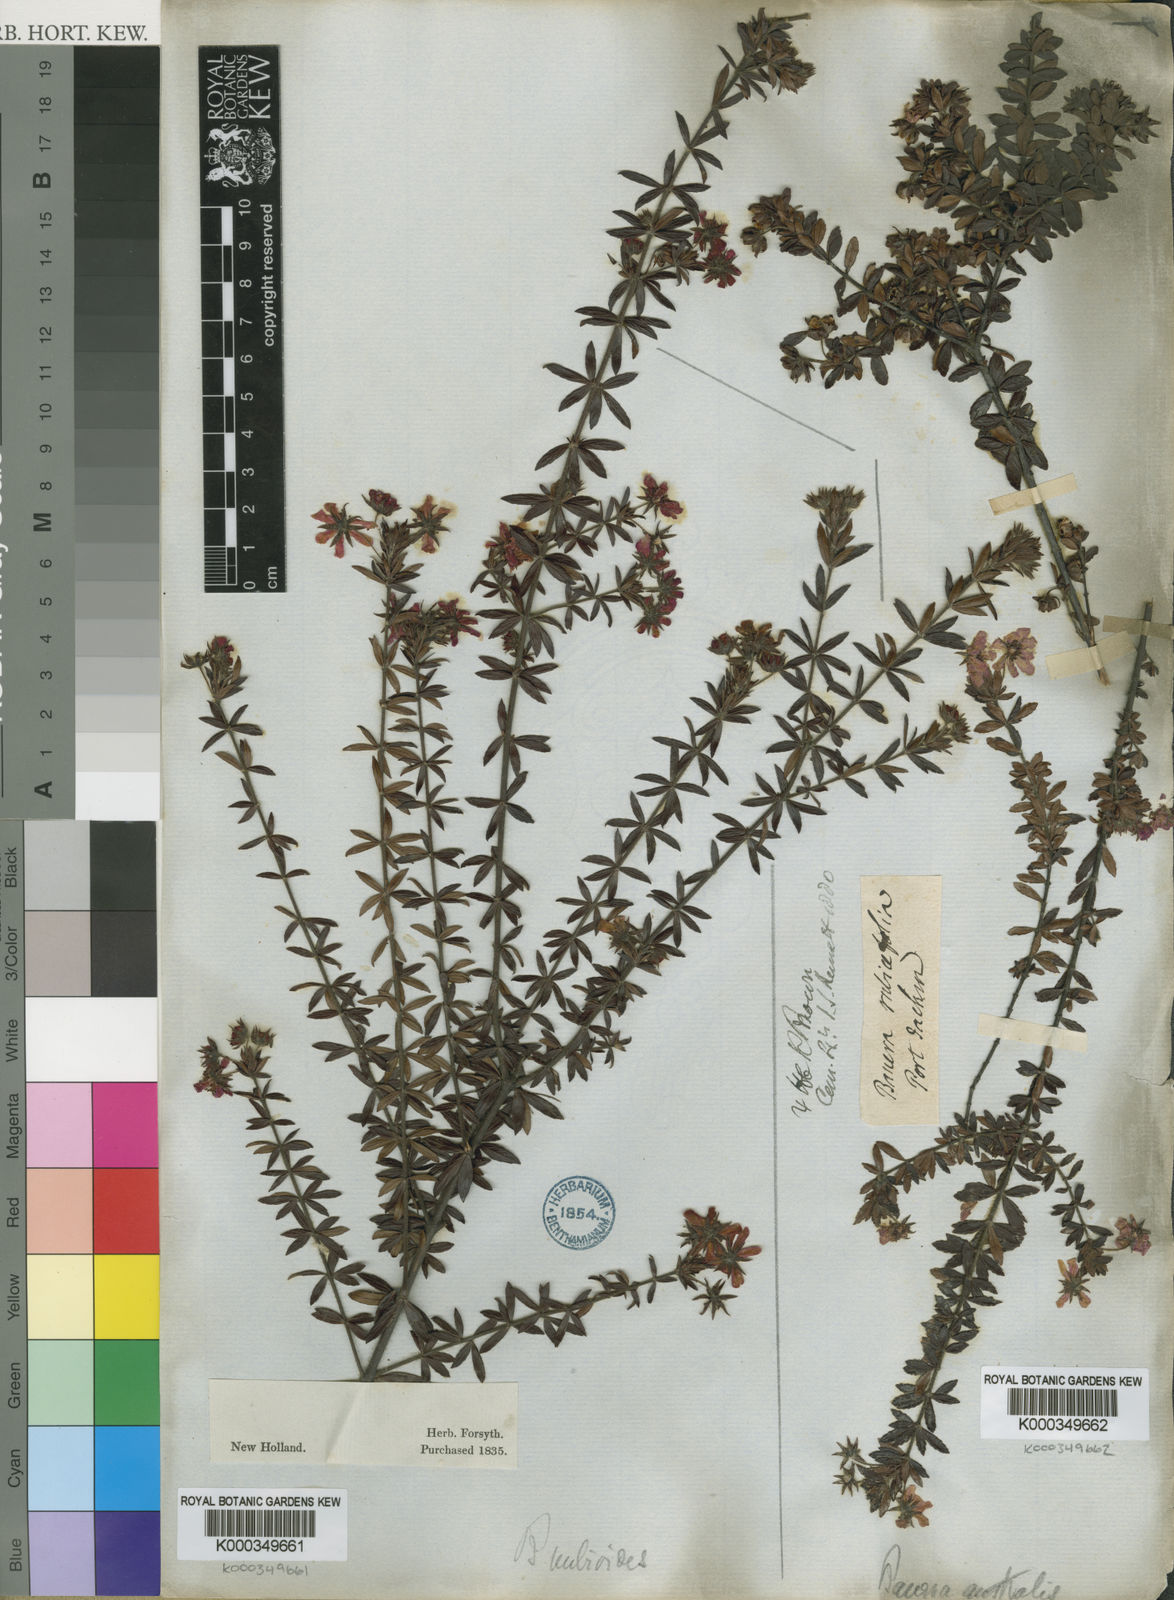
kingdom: Plantae
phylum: Tracheophyta
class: Magnoliopsida
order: Oxalidales
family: Cunoniaceae
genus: Bauera
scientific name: Bauera rubioides
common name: River-rose
